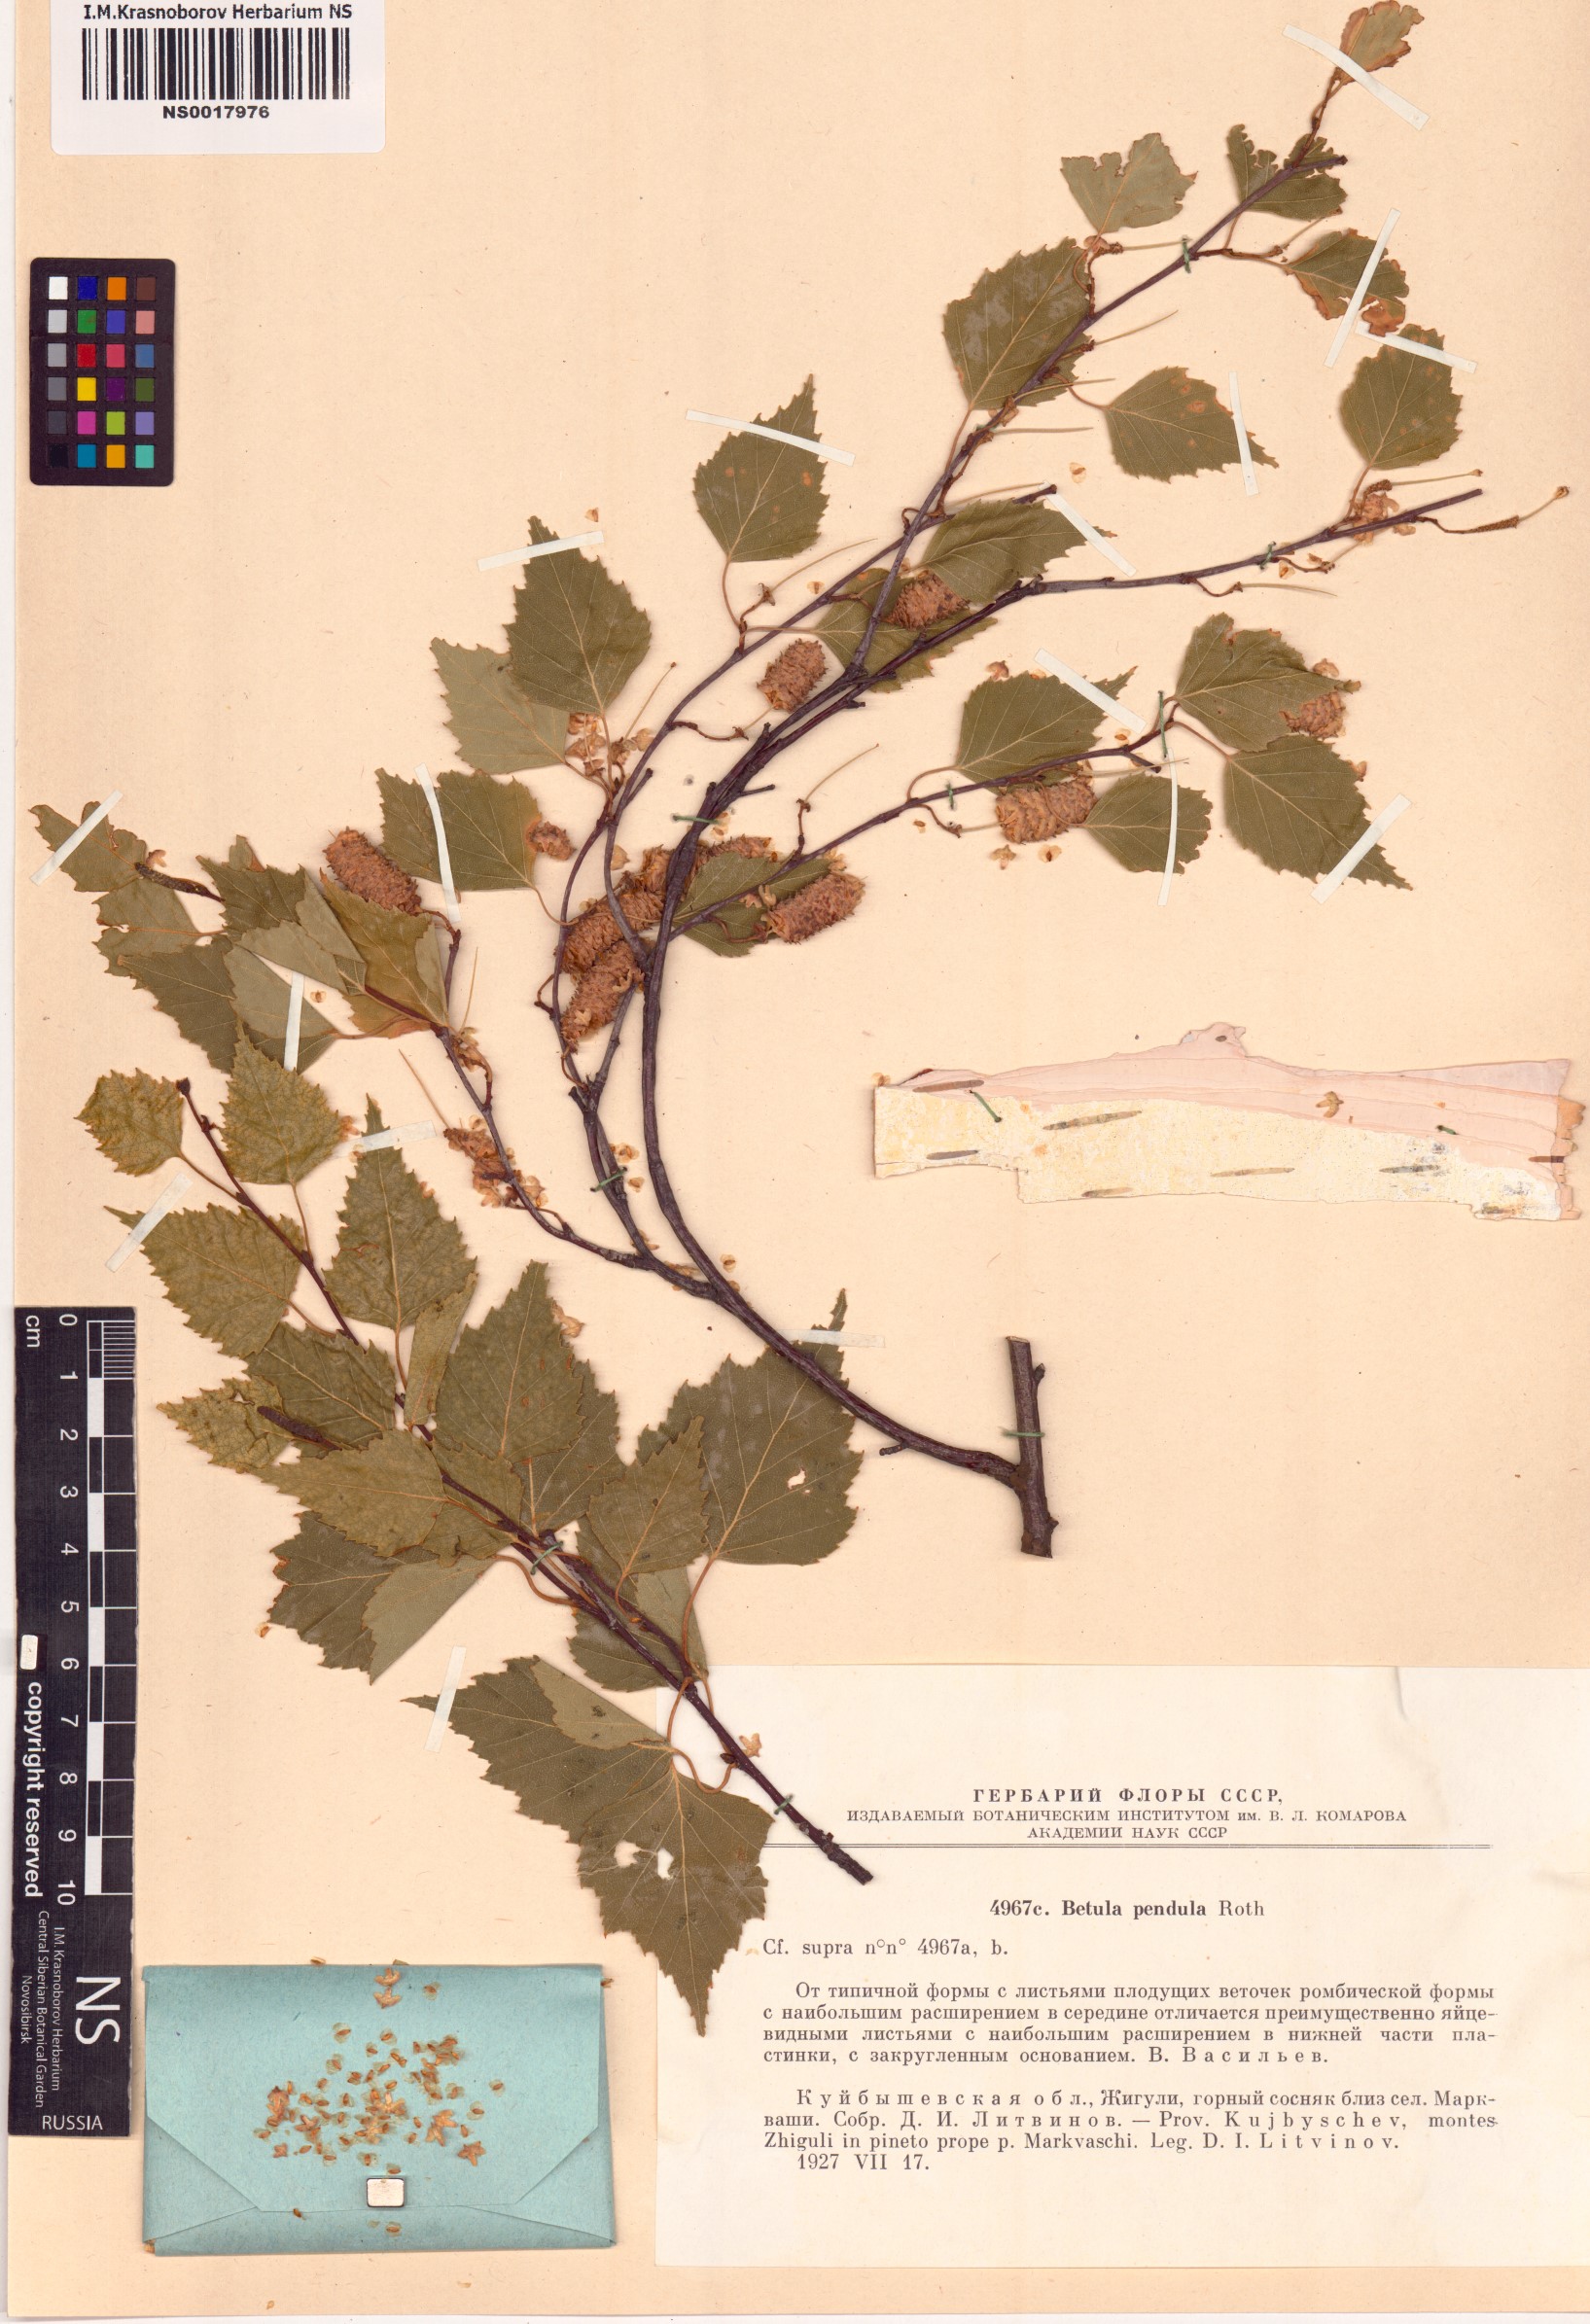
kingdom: Plantae
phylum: Tracheophyta
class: Magnoliopsida
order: Fagales
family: Betulaceae
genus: Betula
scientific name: Betula pendula
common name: Silver birch
